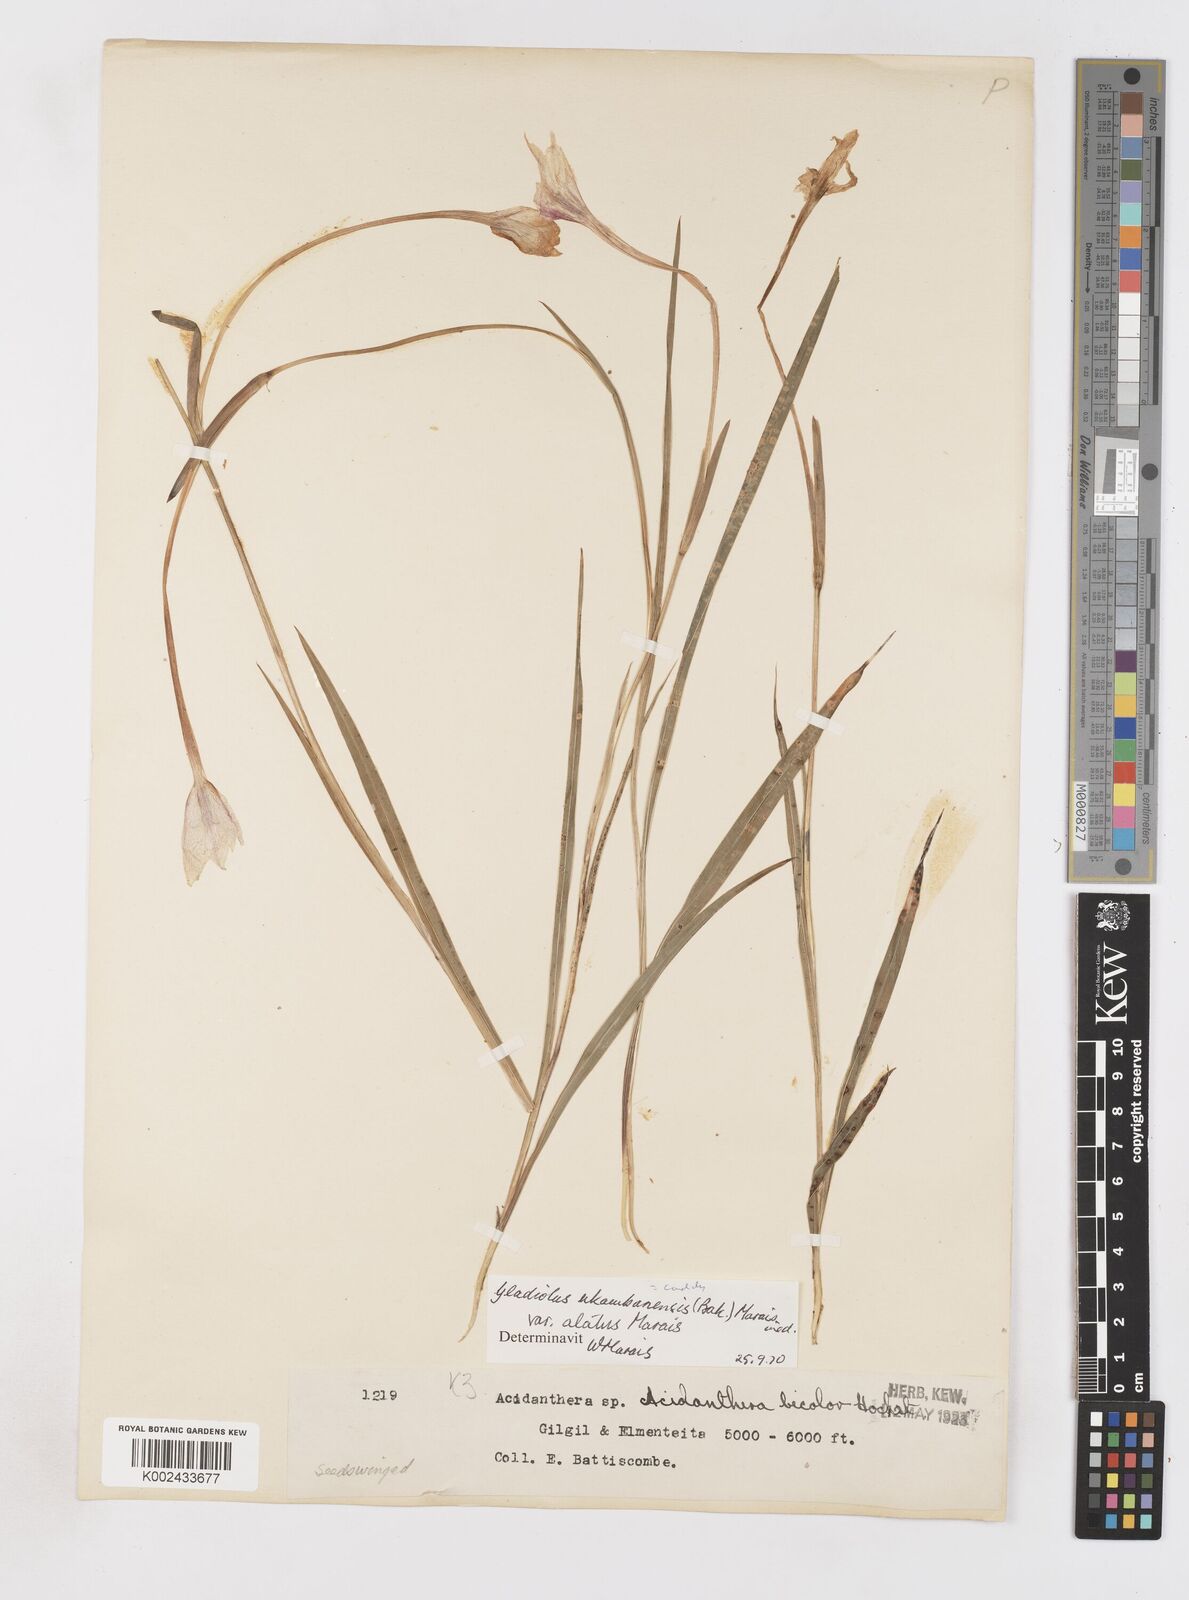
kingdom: Plantae
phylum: Tracheophyta
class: Liliopsida
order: Asparagales
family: Iridaceae
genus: Gladiolus
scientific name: Gladiolus candidus
